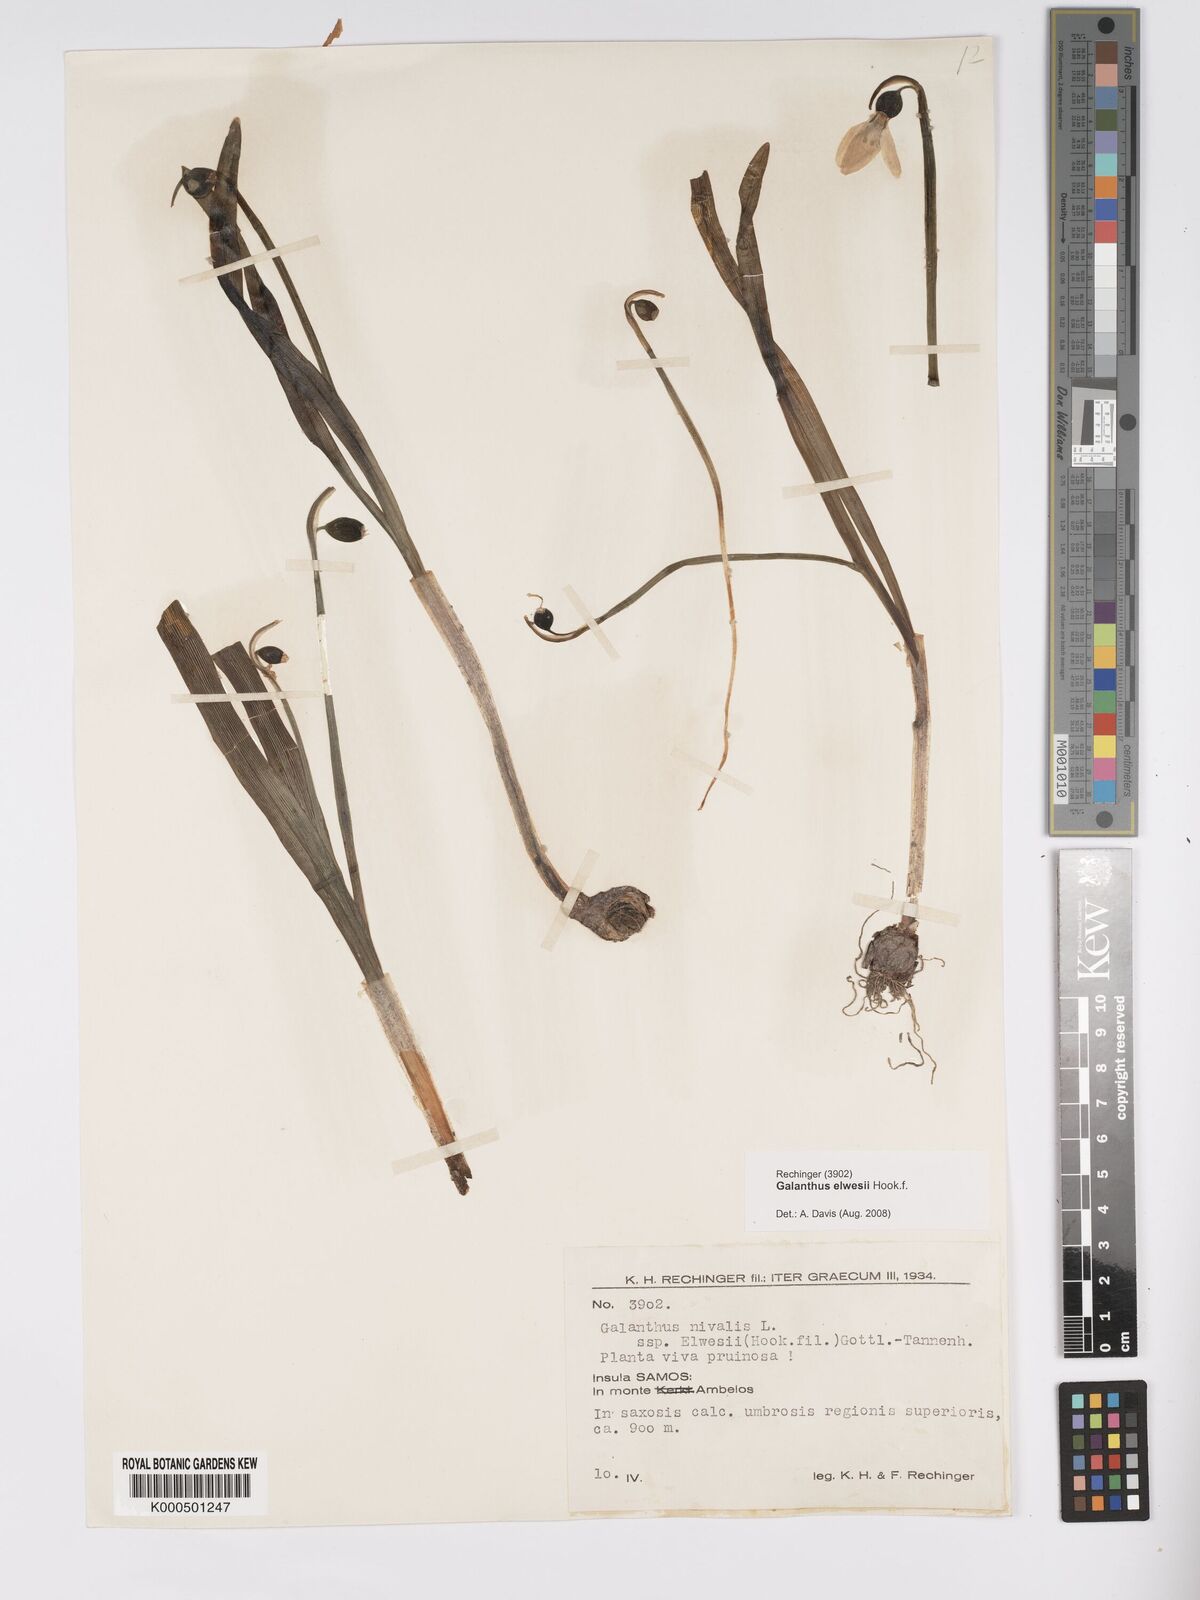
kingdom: Plantae
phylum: Tracheophyta
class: Liliopsida
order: Asparagales
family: Amaryllidaceae
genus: Galanthus
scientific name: Galanthus elwesii
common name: Greater snowdrop
